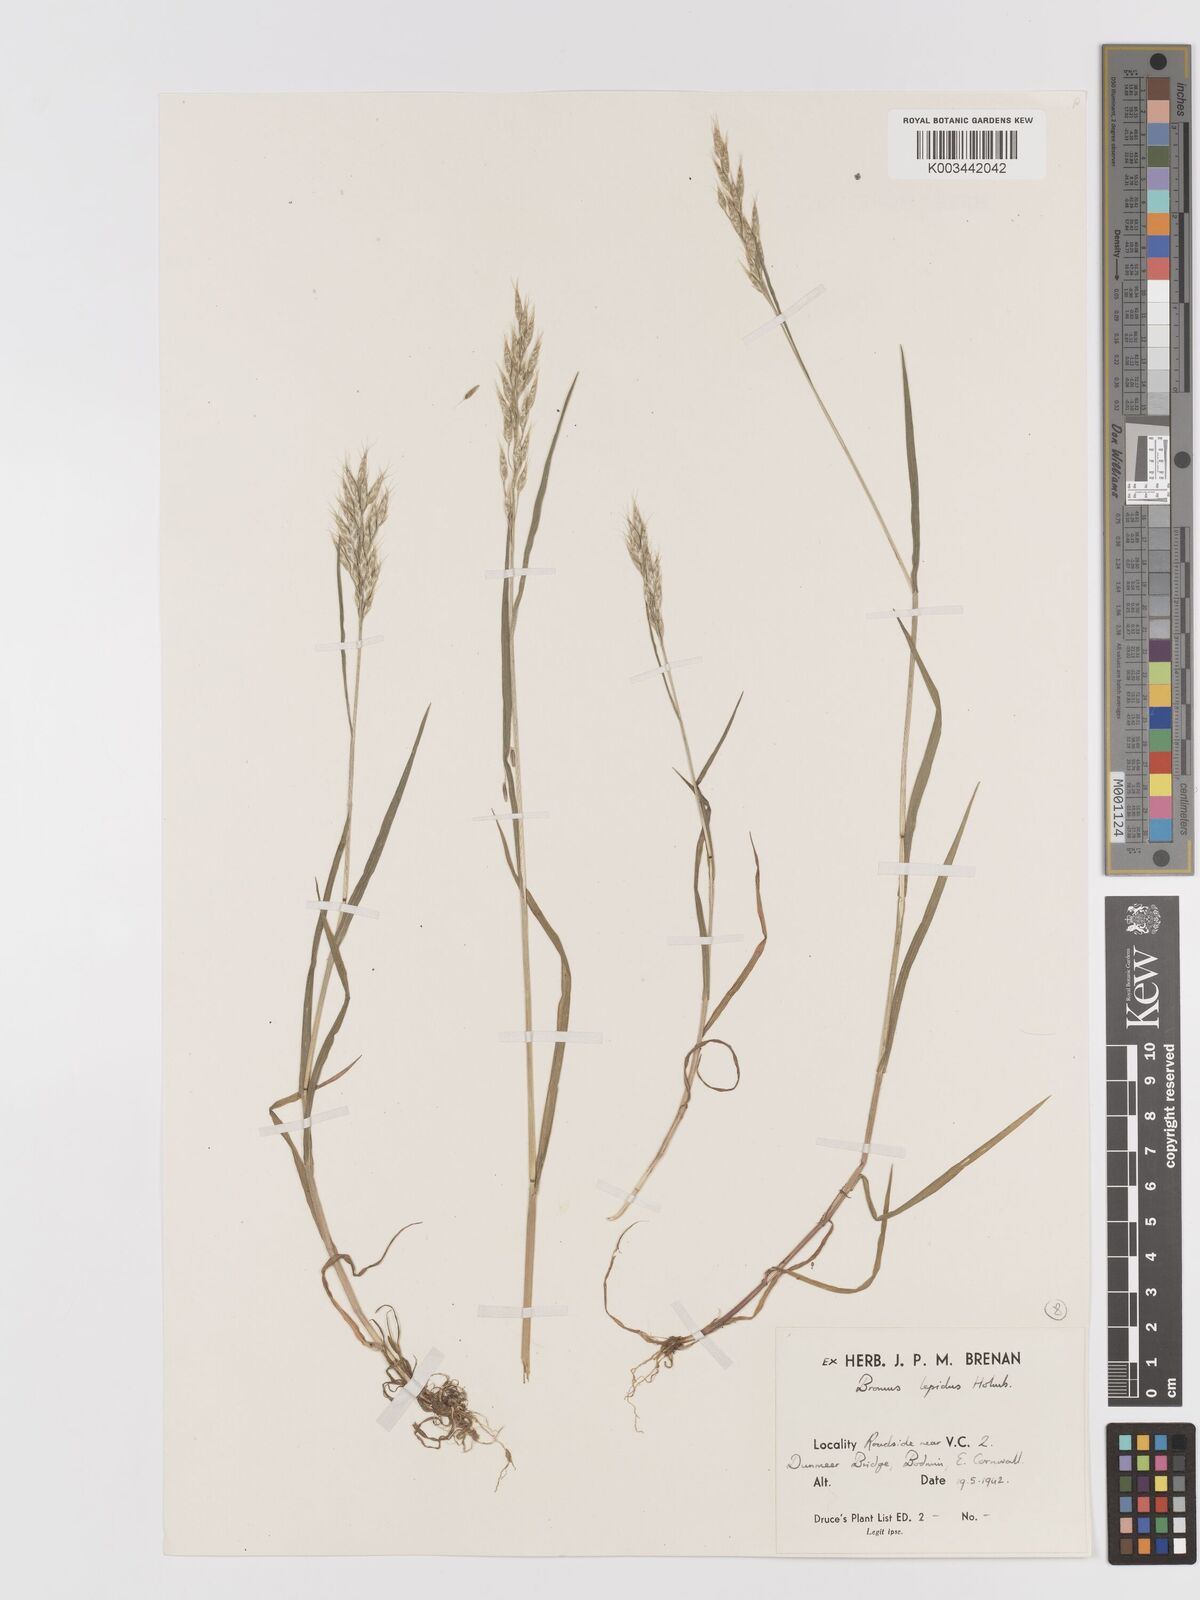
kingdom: Plantae
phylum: Tracheophyta
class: Liliopsida
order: Poales
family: Poaceae
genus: Bromus
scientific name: Bromus lepidus
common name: Slender soft-brome
